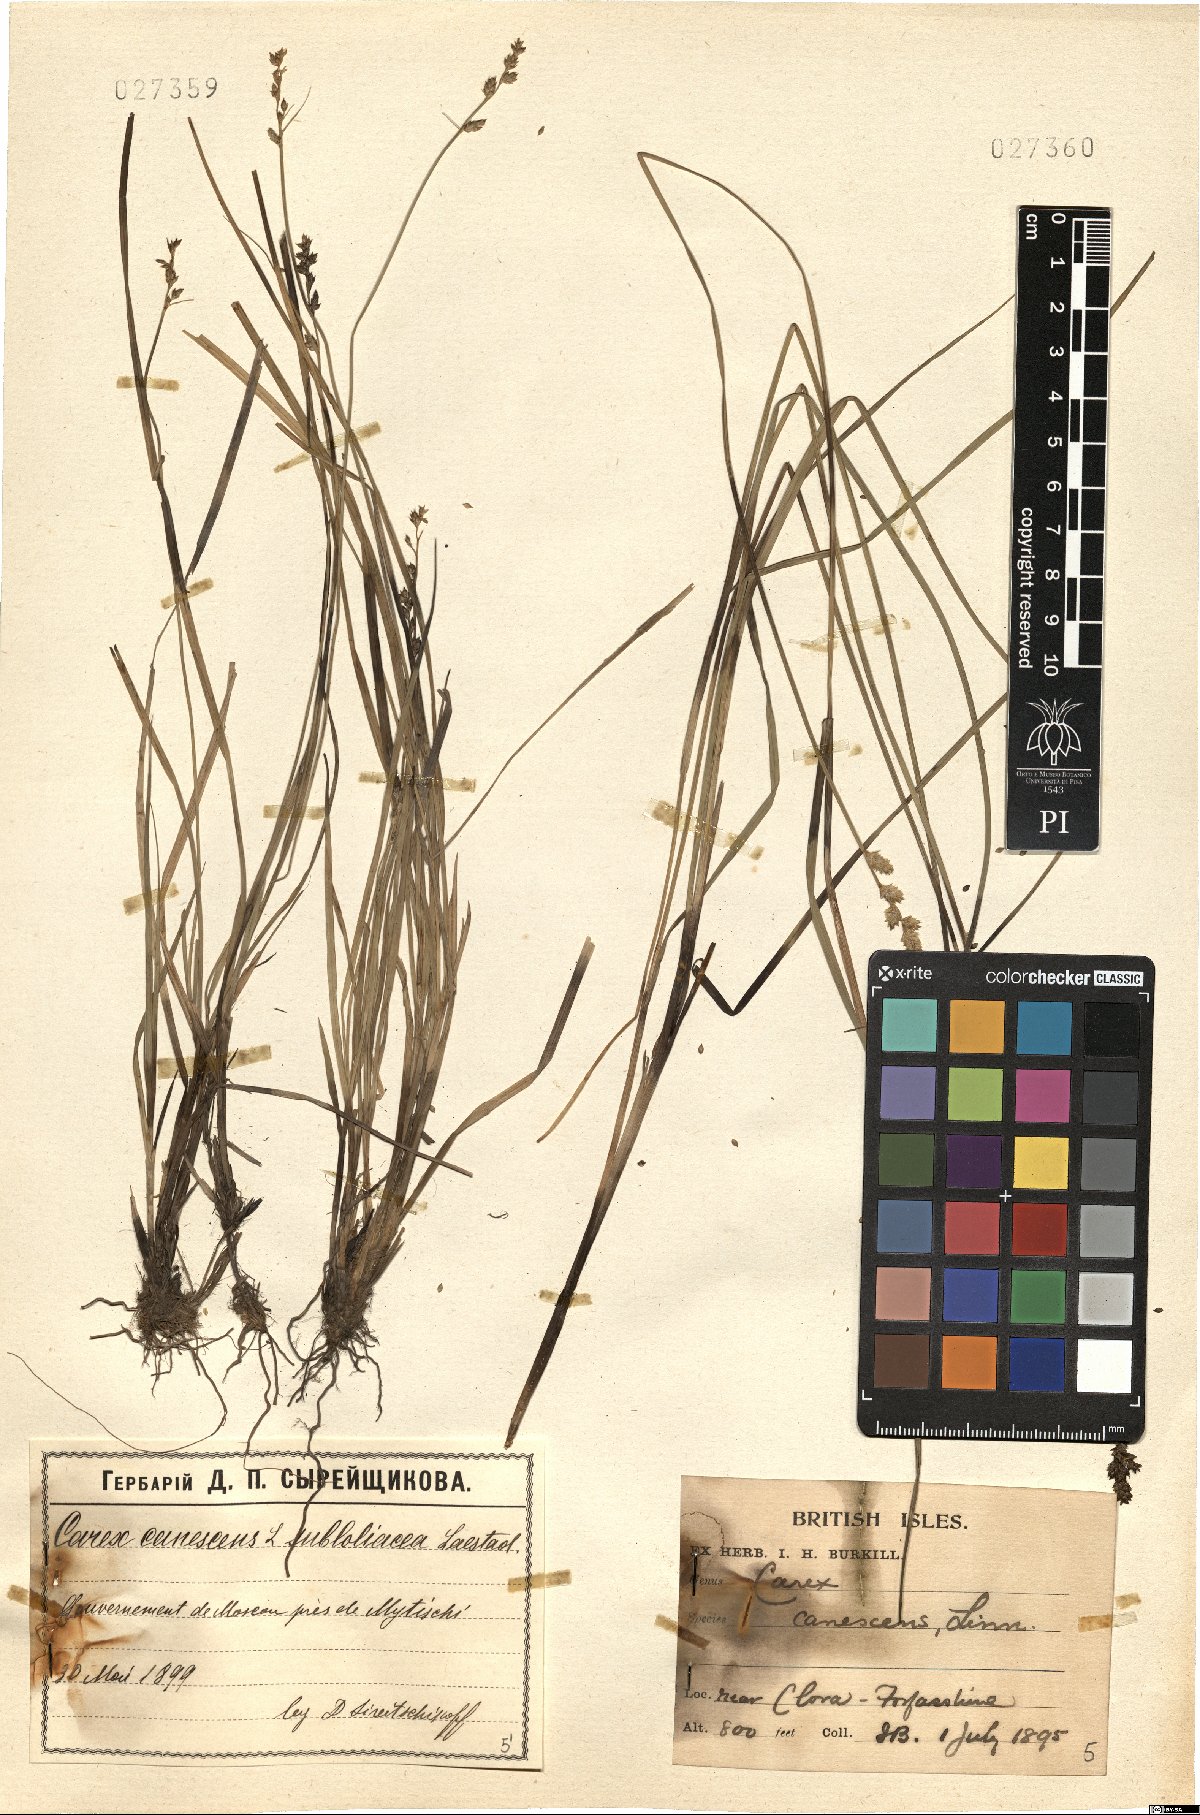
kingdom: Plantae
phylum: Tracheophyta
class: Liliopsida
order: Poales
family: Cyperaceae
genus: Carex
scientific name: Carex canescens
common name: White sedge
